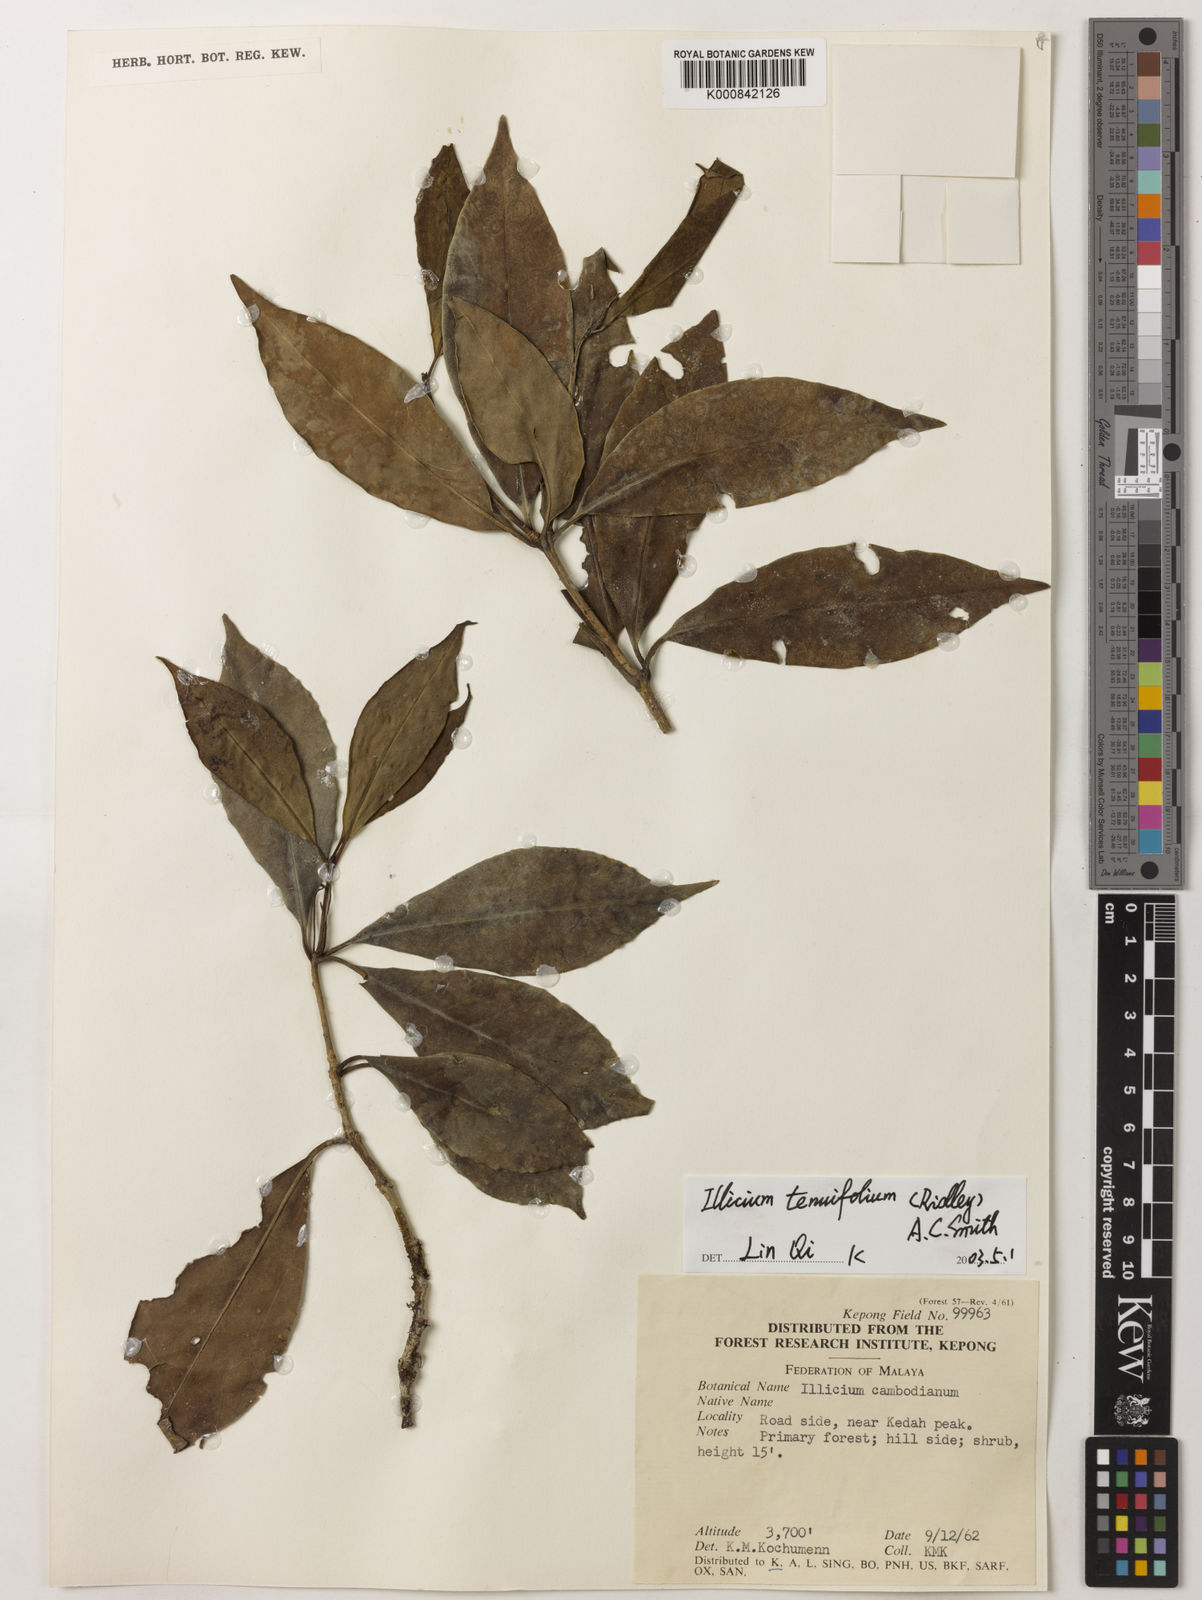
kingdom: Plantae
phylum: Tracheophyta
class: Magnoliopsida
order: Austrobaileyales
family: Schisandraceae
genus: Illicium
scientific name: Illicium tenuifolium
